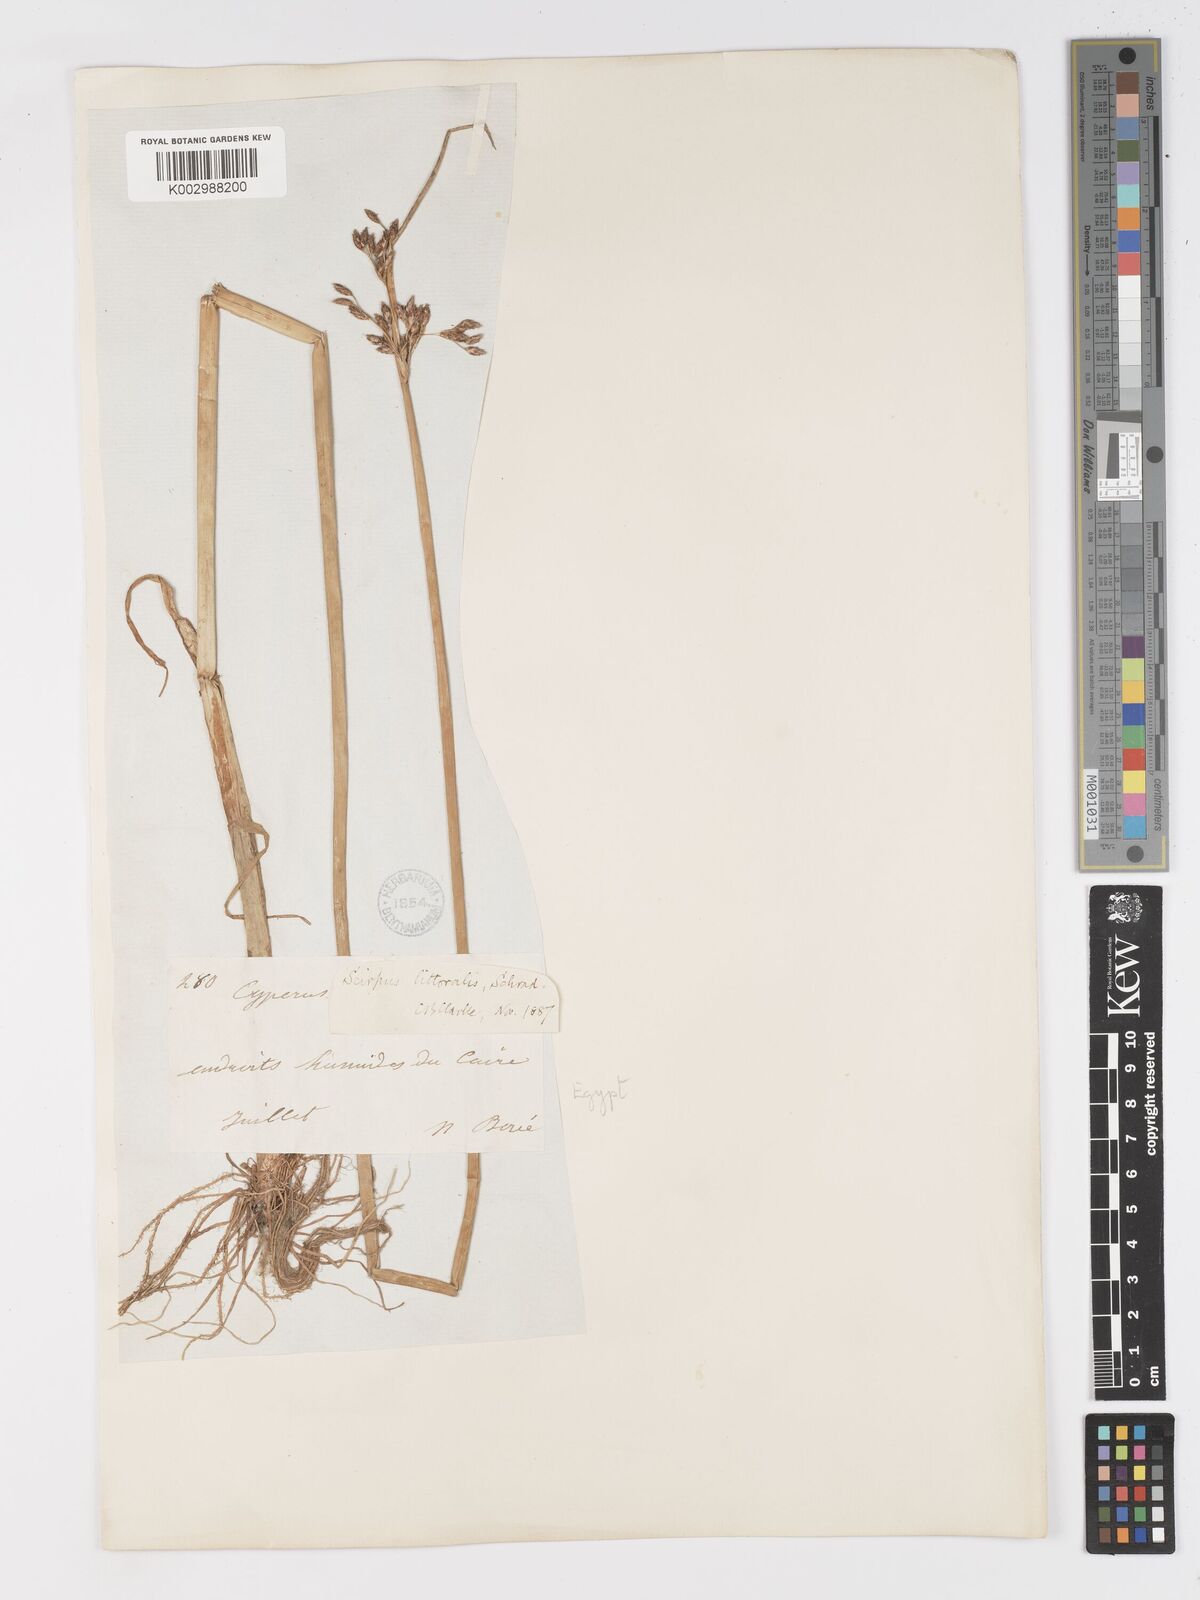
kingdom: Plantae
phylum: Tracheophyta
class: Liliopsida
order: Poales
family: Cyperaceae
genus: Schoenoplectus
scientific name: Schoenoplectus litoralis
